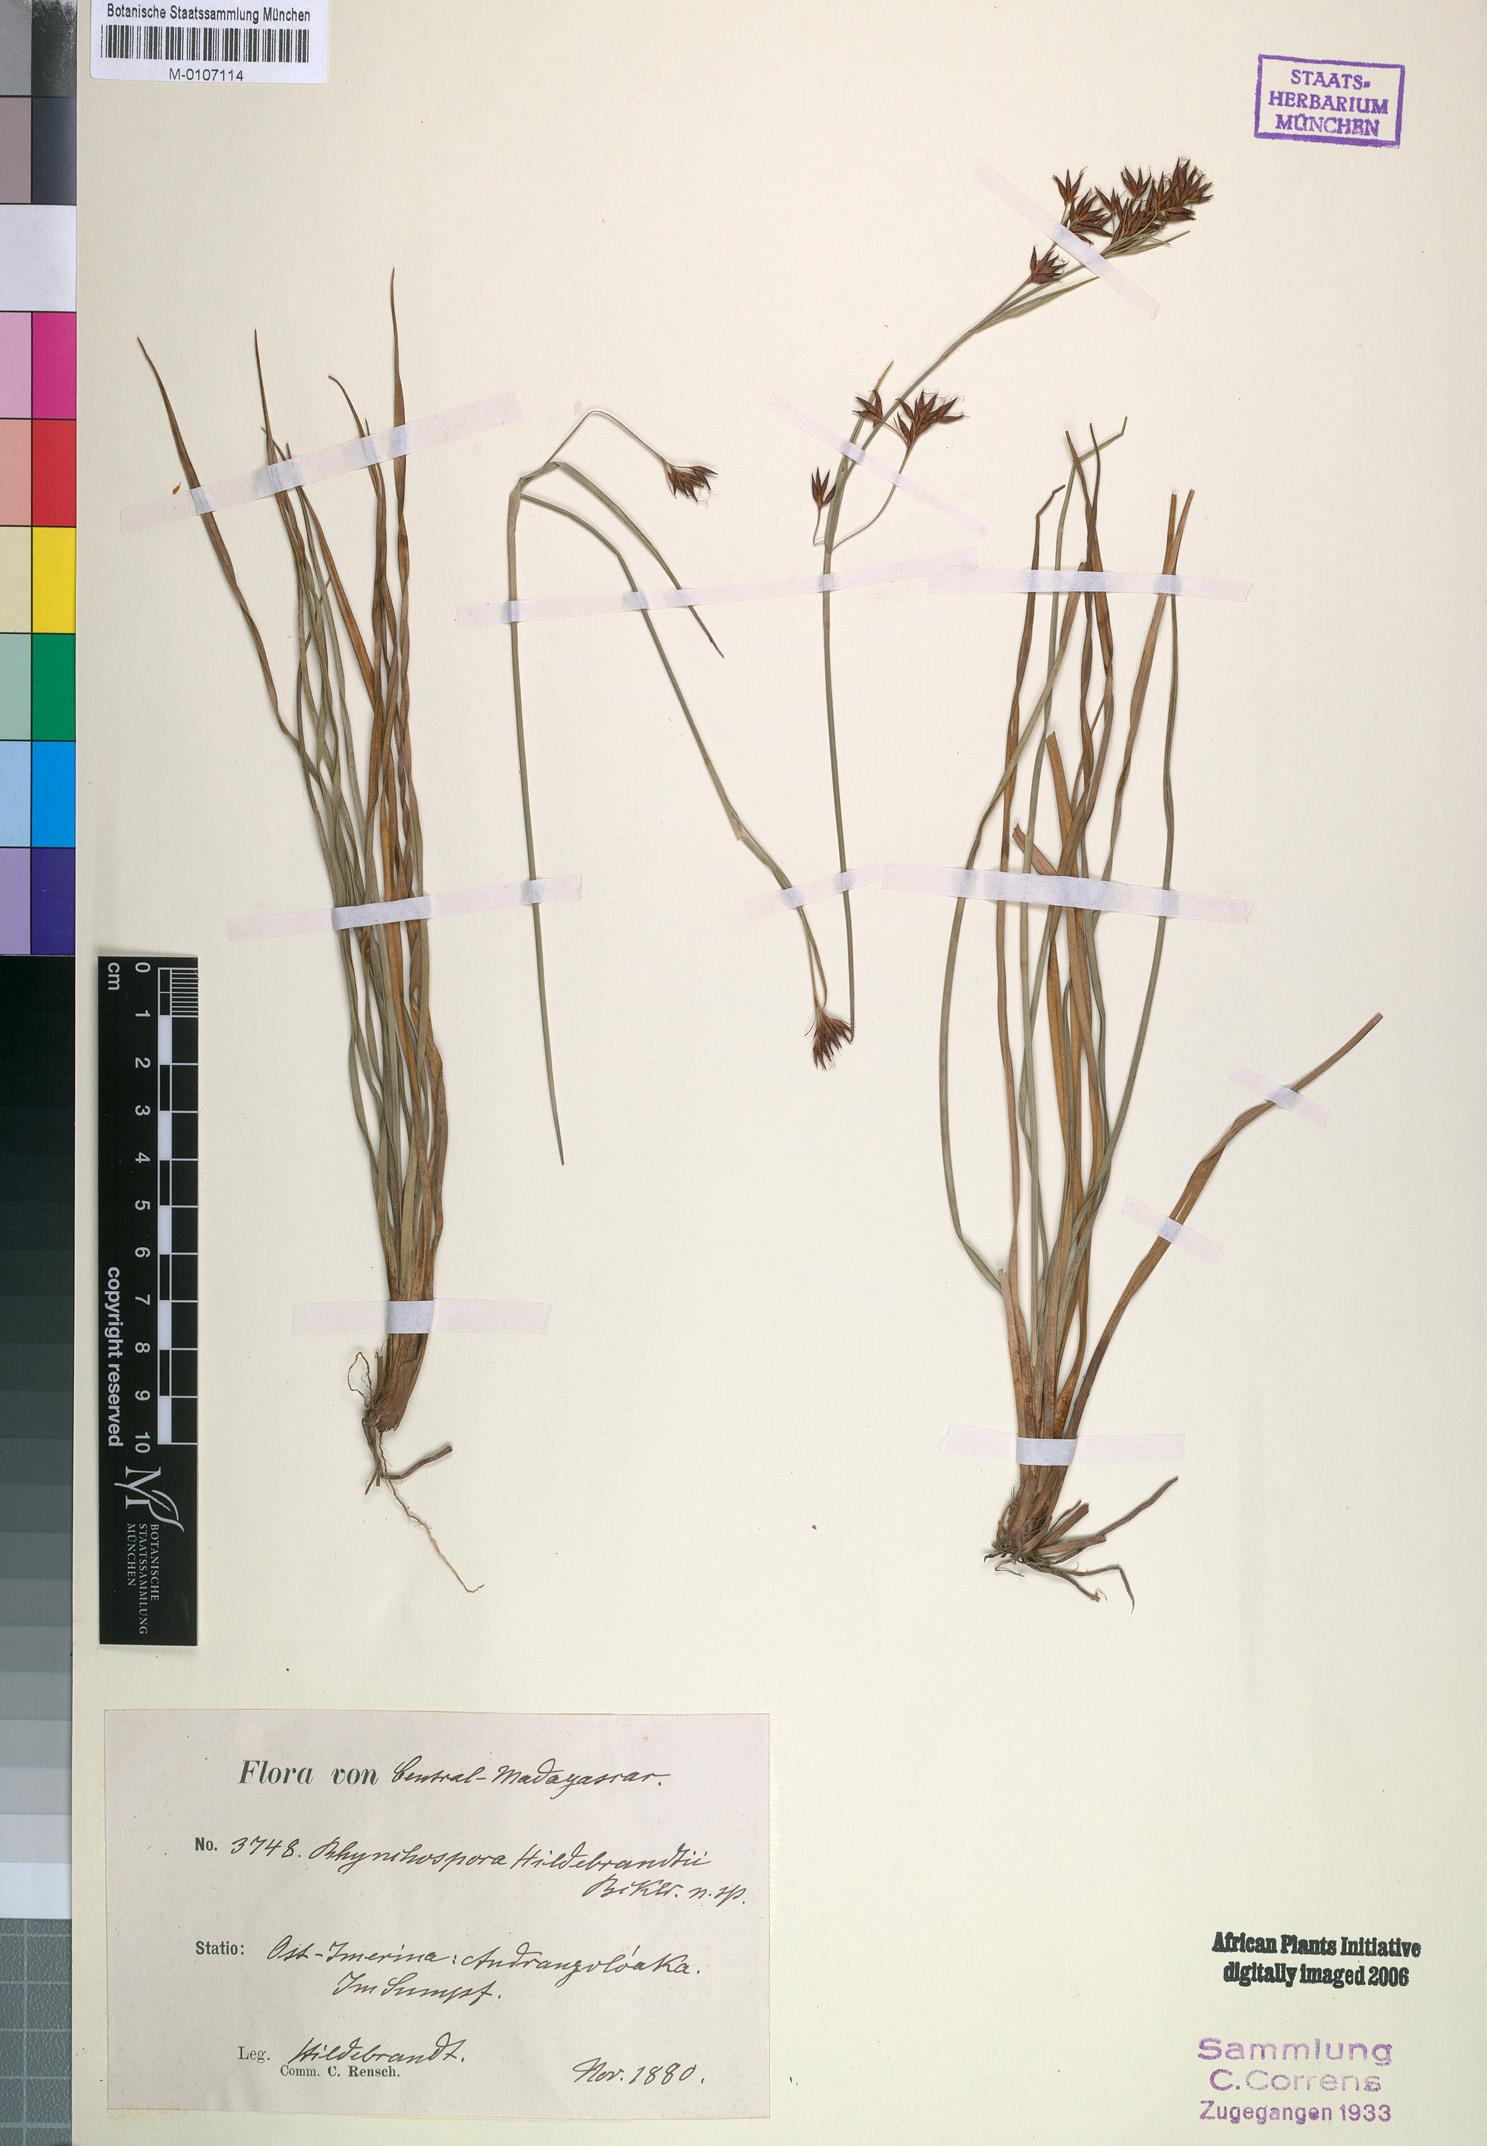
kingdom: Plantae
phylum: Tracheophyta
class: Liliopsida
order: Poales
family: Cyperaceae
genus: Rhynchospora
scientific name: Rhynchospora hildebrandtii
